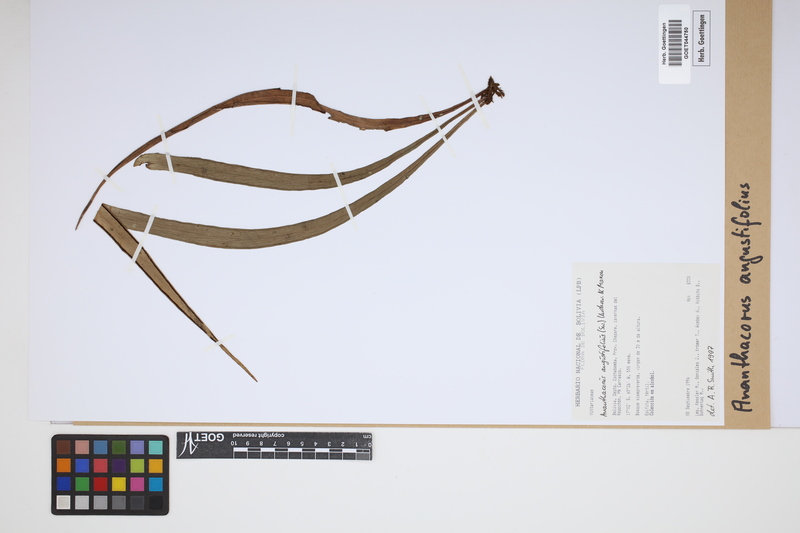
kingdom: Plantae
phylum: Tracheophyta
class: Polypodiopsida
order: Polypodiales
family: Pteridaceae
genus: Ananthacorus
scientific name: Ananthacorus angustifolius
